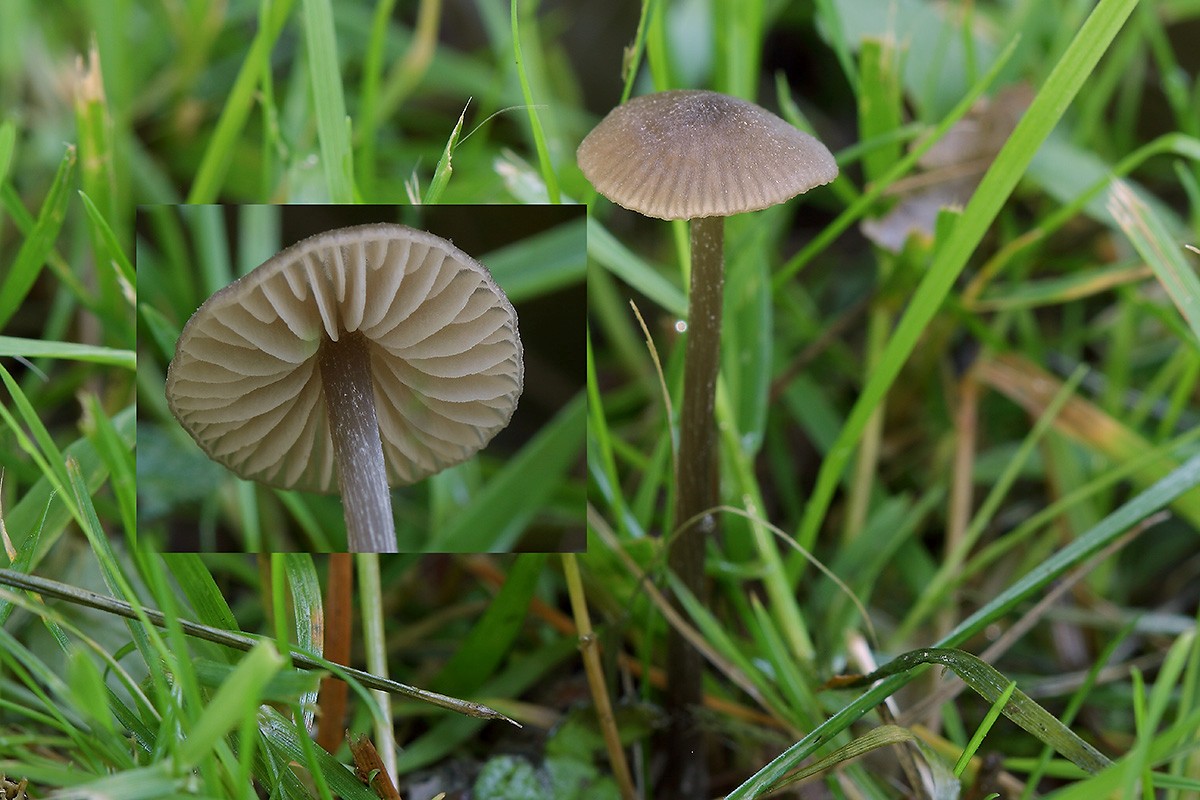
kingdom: Fungi
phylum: Basidiomycota
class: Agaricomycetes
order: Agaricales
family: Entolomataceae
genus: Entoloma
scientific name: Entoloma minutum
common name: liden rødblad
